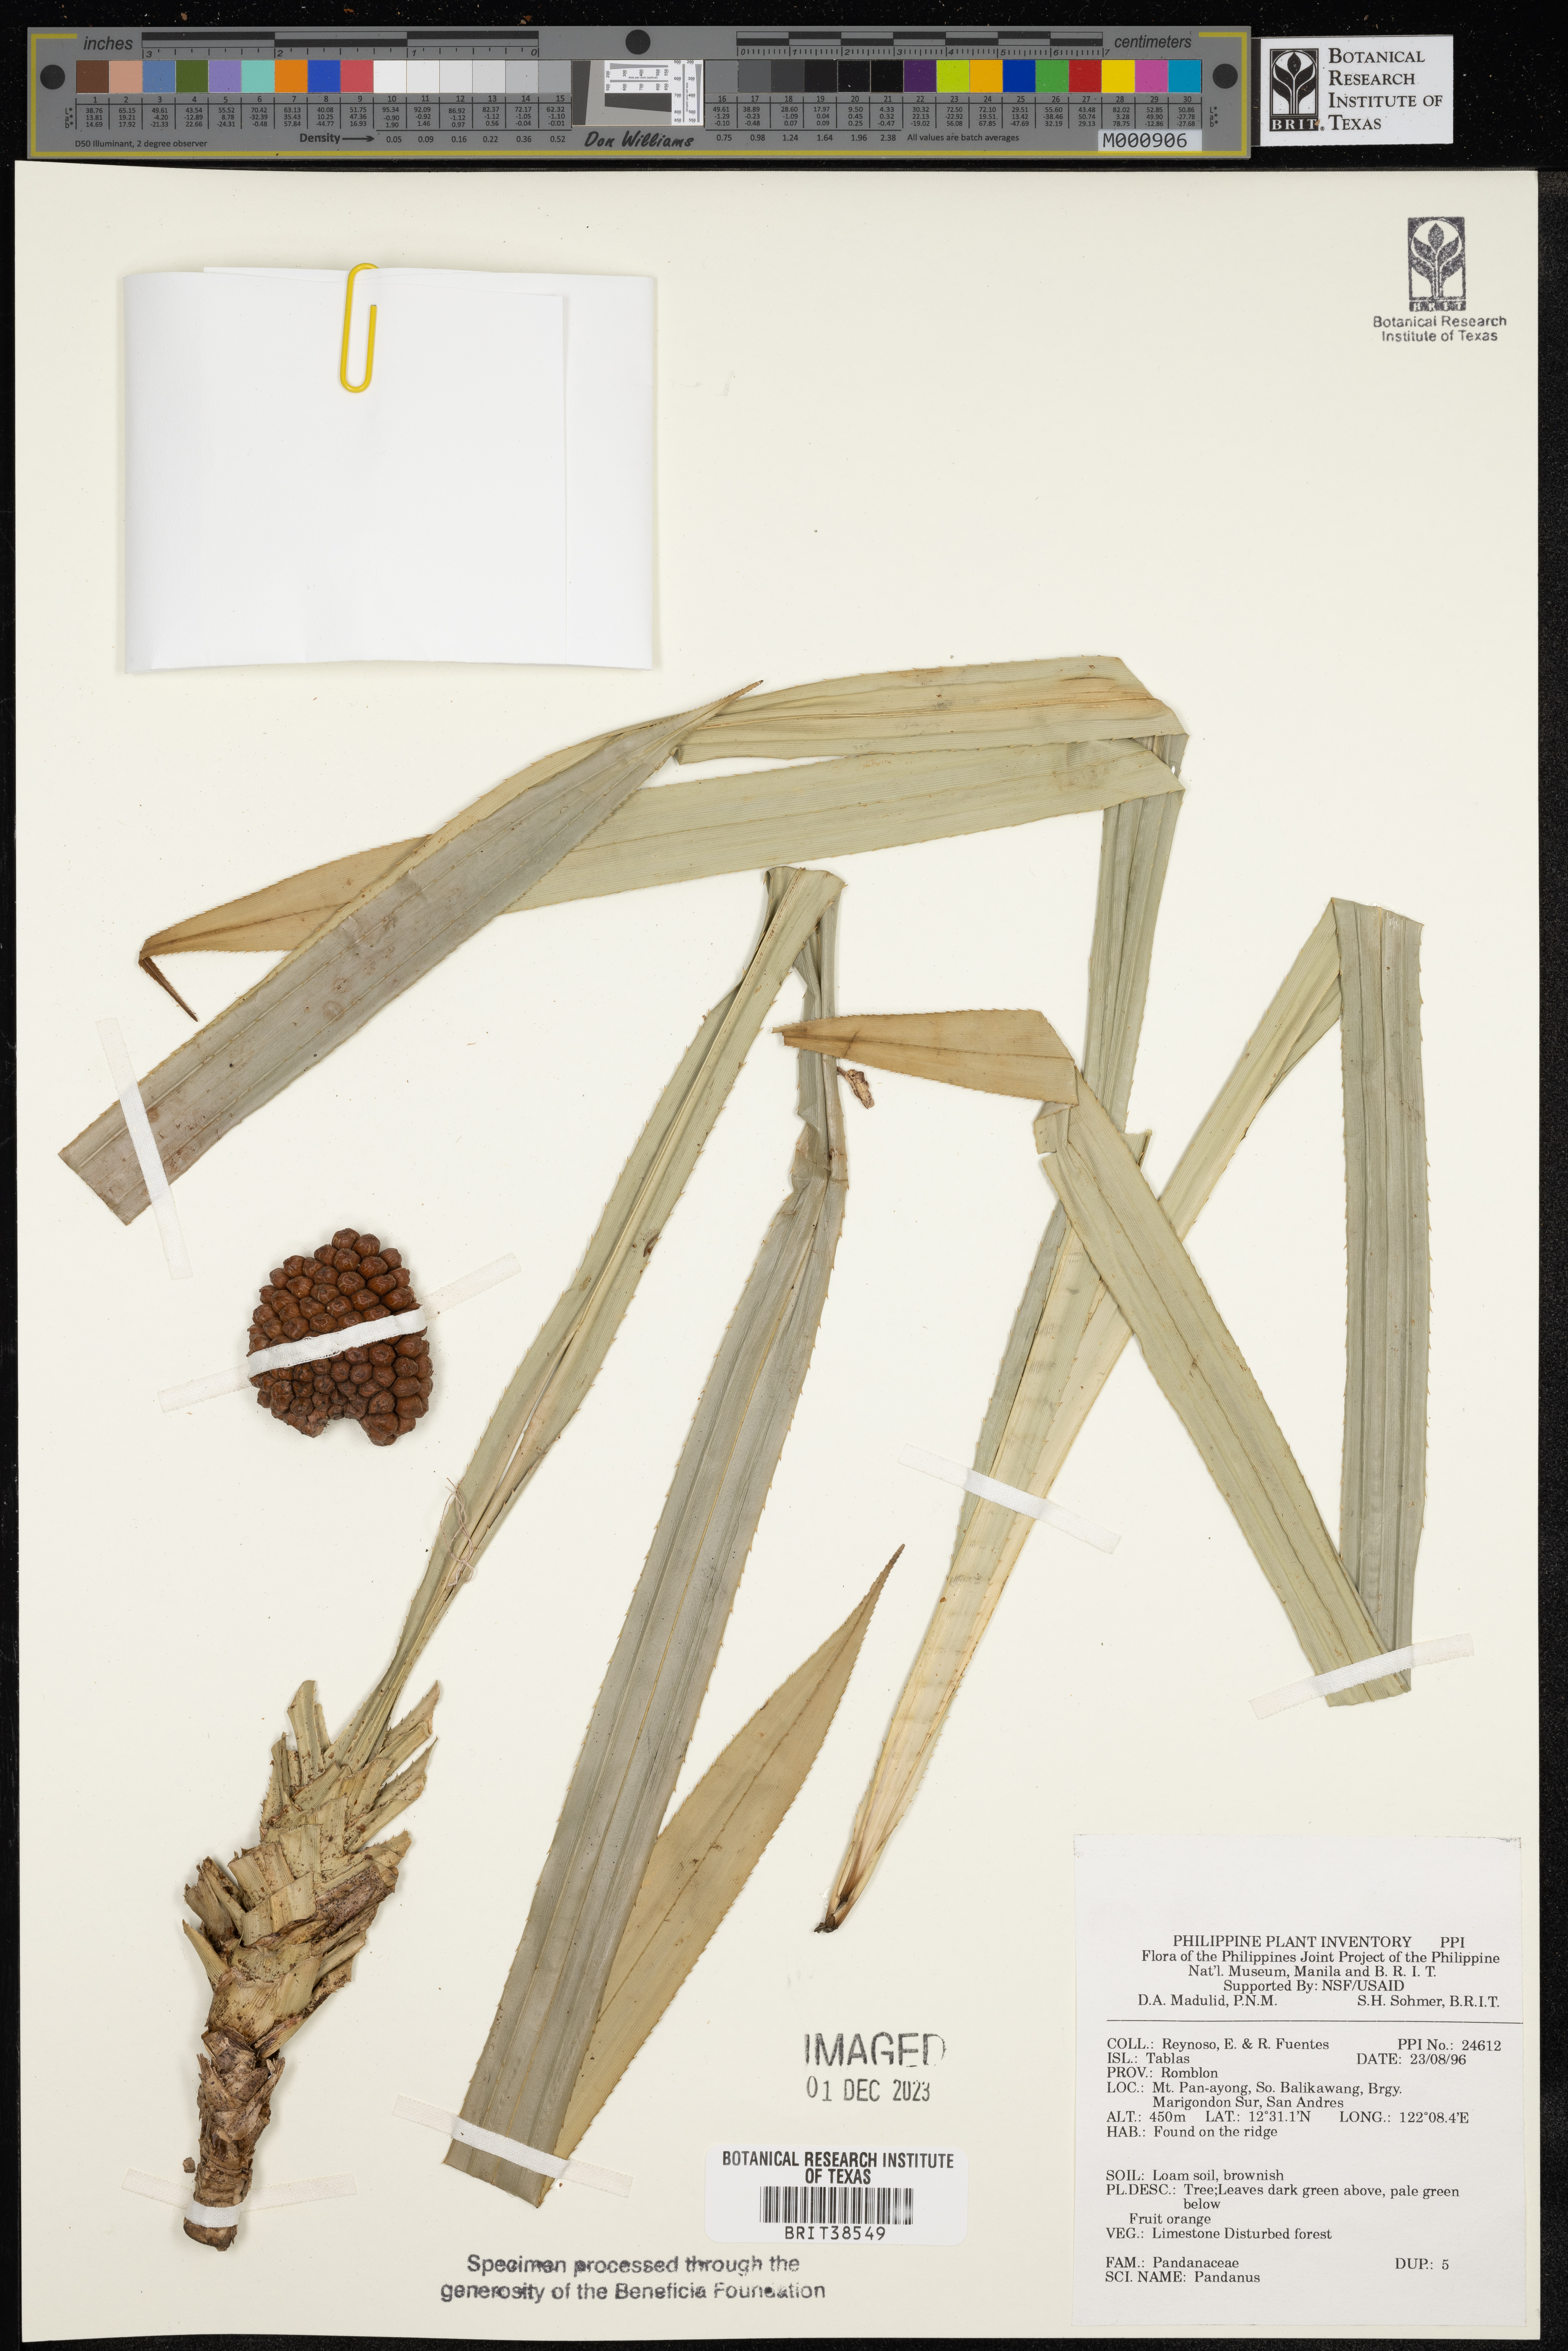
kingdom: Plantae
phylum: Tracheophyta
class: Liliopsida
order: Pandanales
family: Pandanaceae
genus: Pandanus
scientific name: Pandanus
